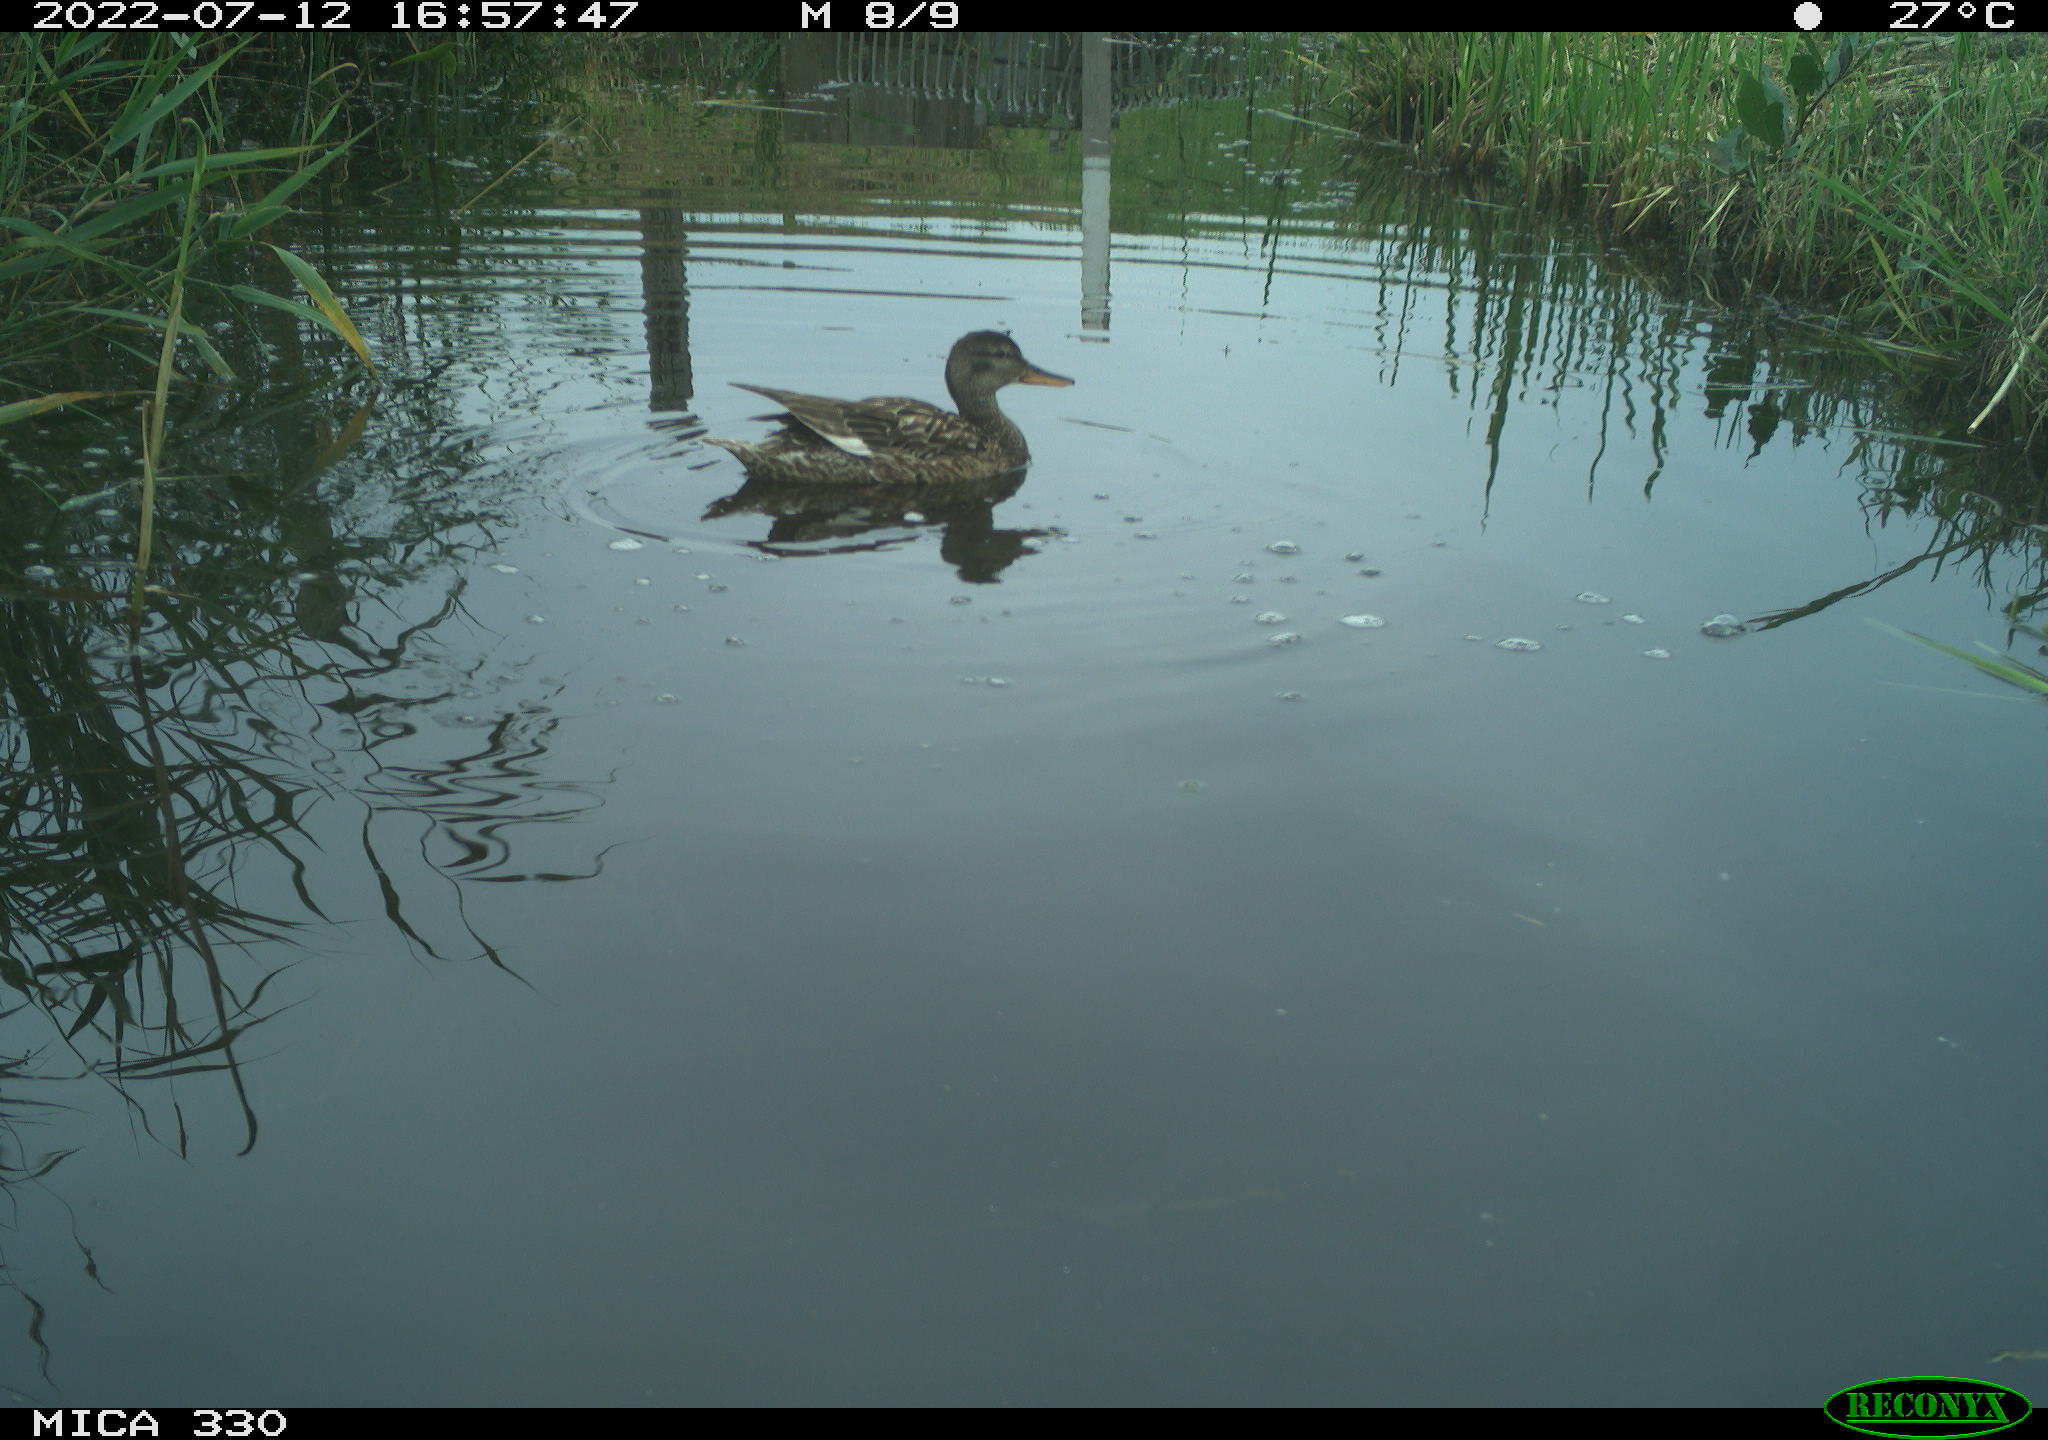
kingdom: Animalia
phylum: Chordata
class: Aves
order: Anseriformes
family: Anatidae
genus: Mareca
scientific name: Mareca strepera
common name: Gadwall
